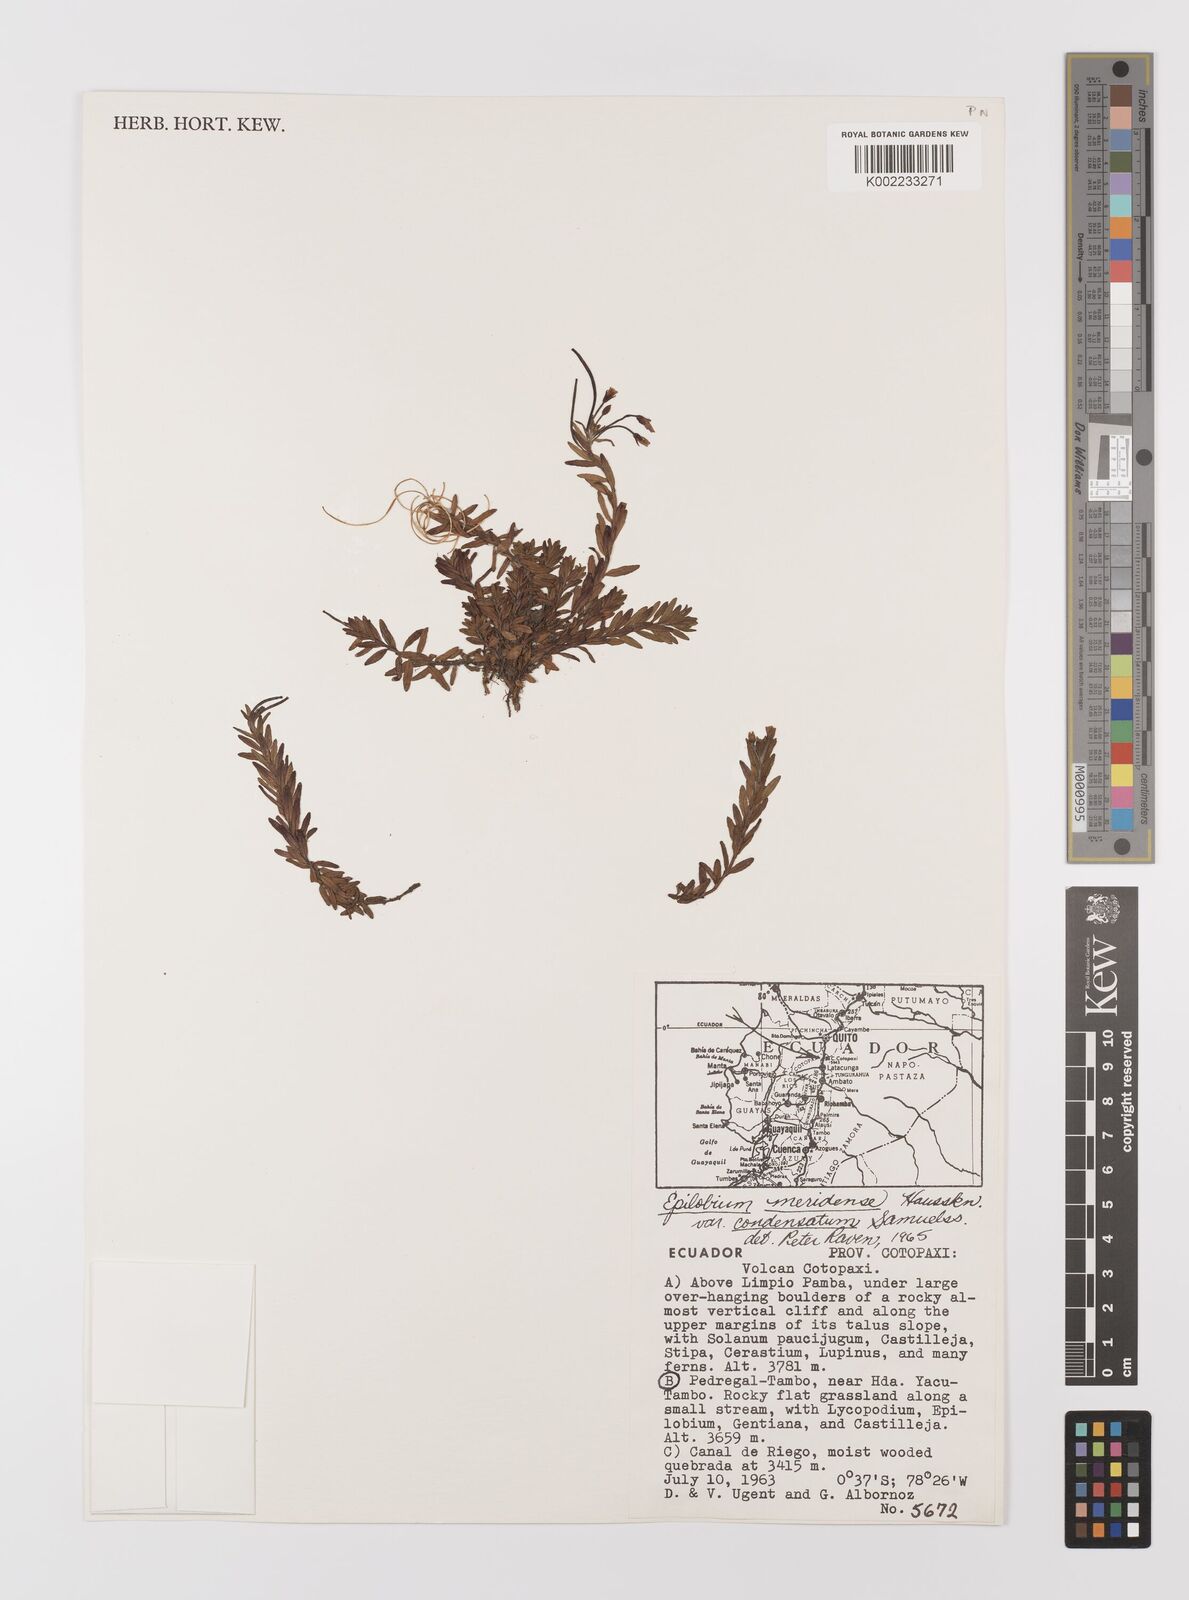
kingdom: Plantae
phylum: Tracheophyta
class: Magnoliopsida
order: Myrtales
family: Onagraceae
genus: Epilobium
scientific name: Epilobium denticulatum
